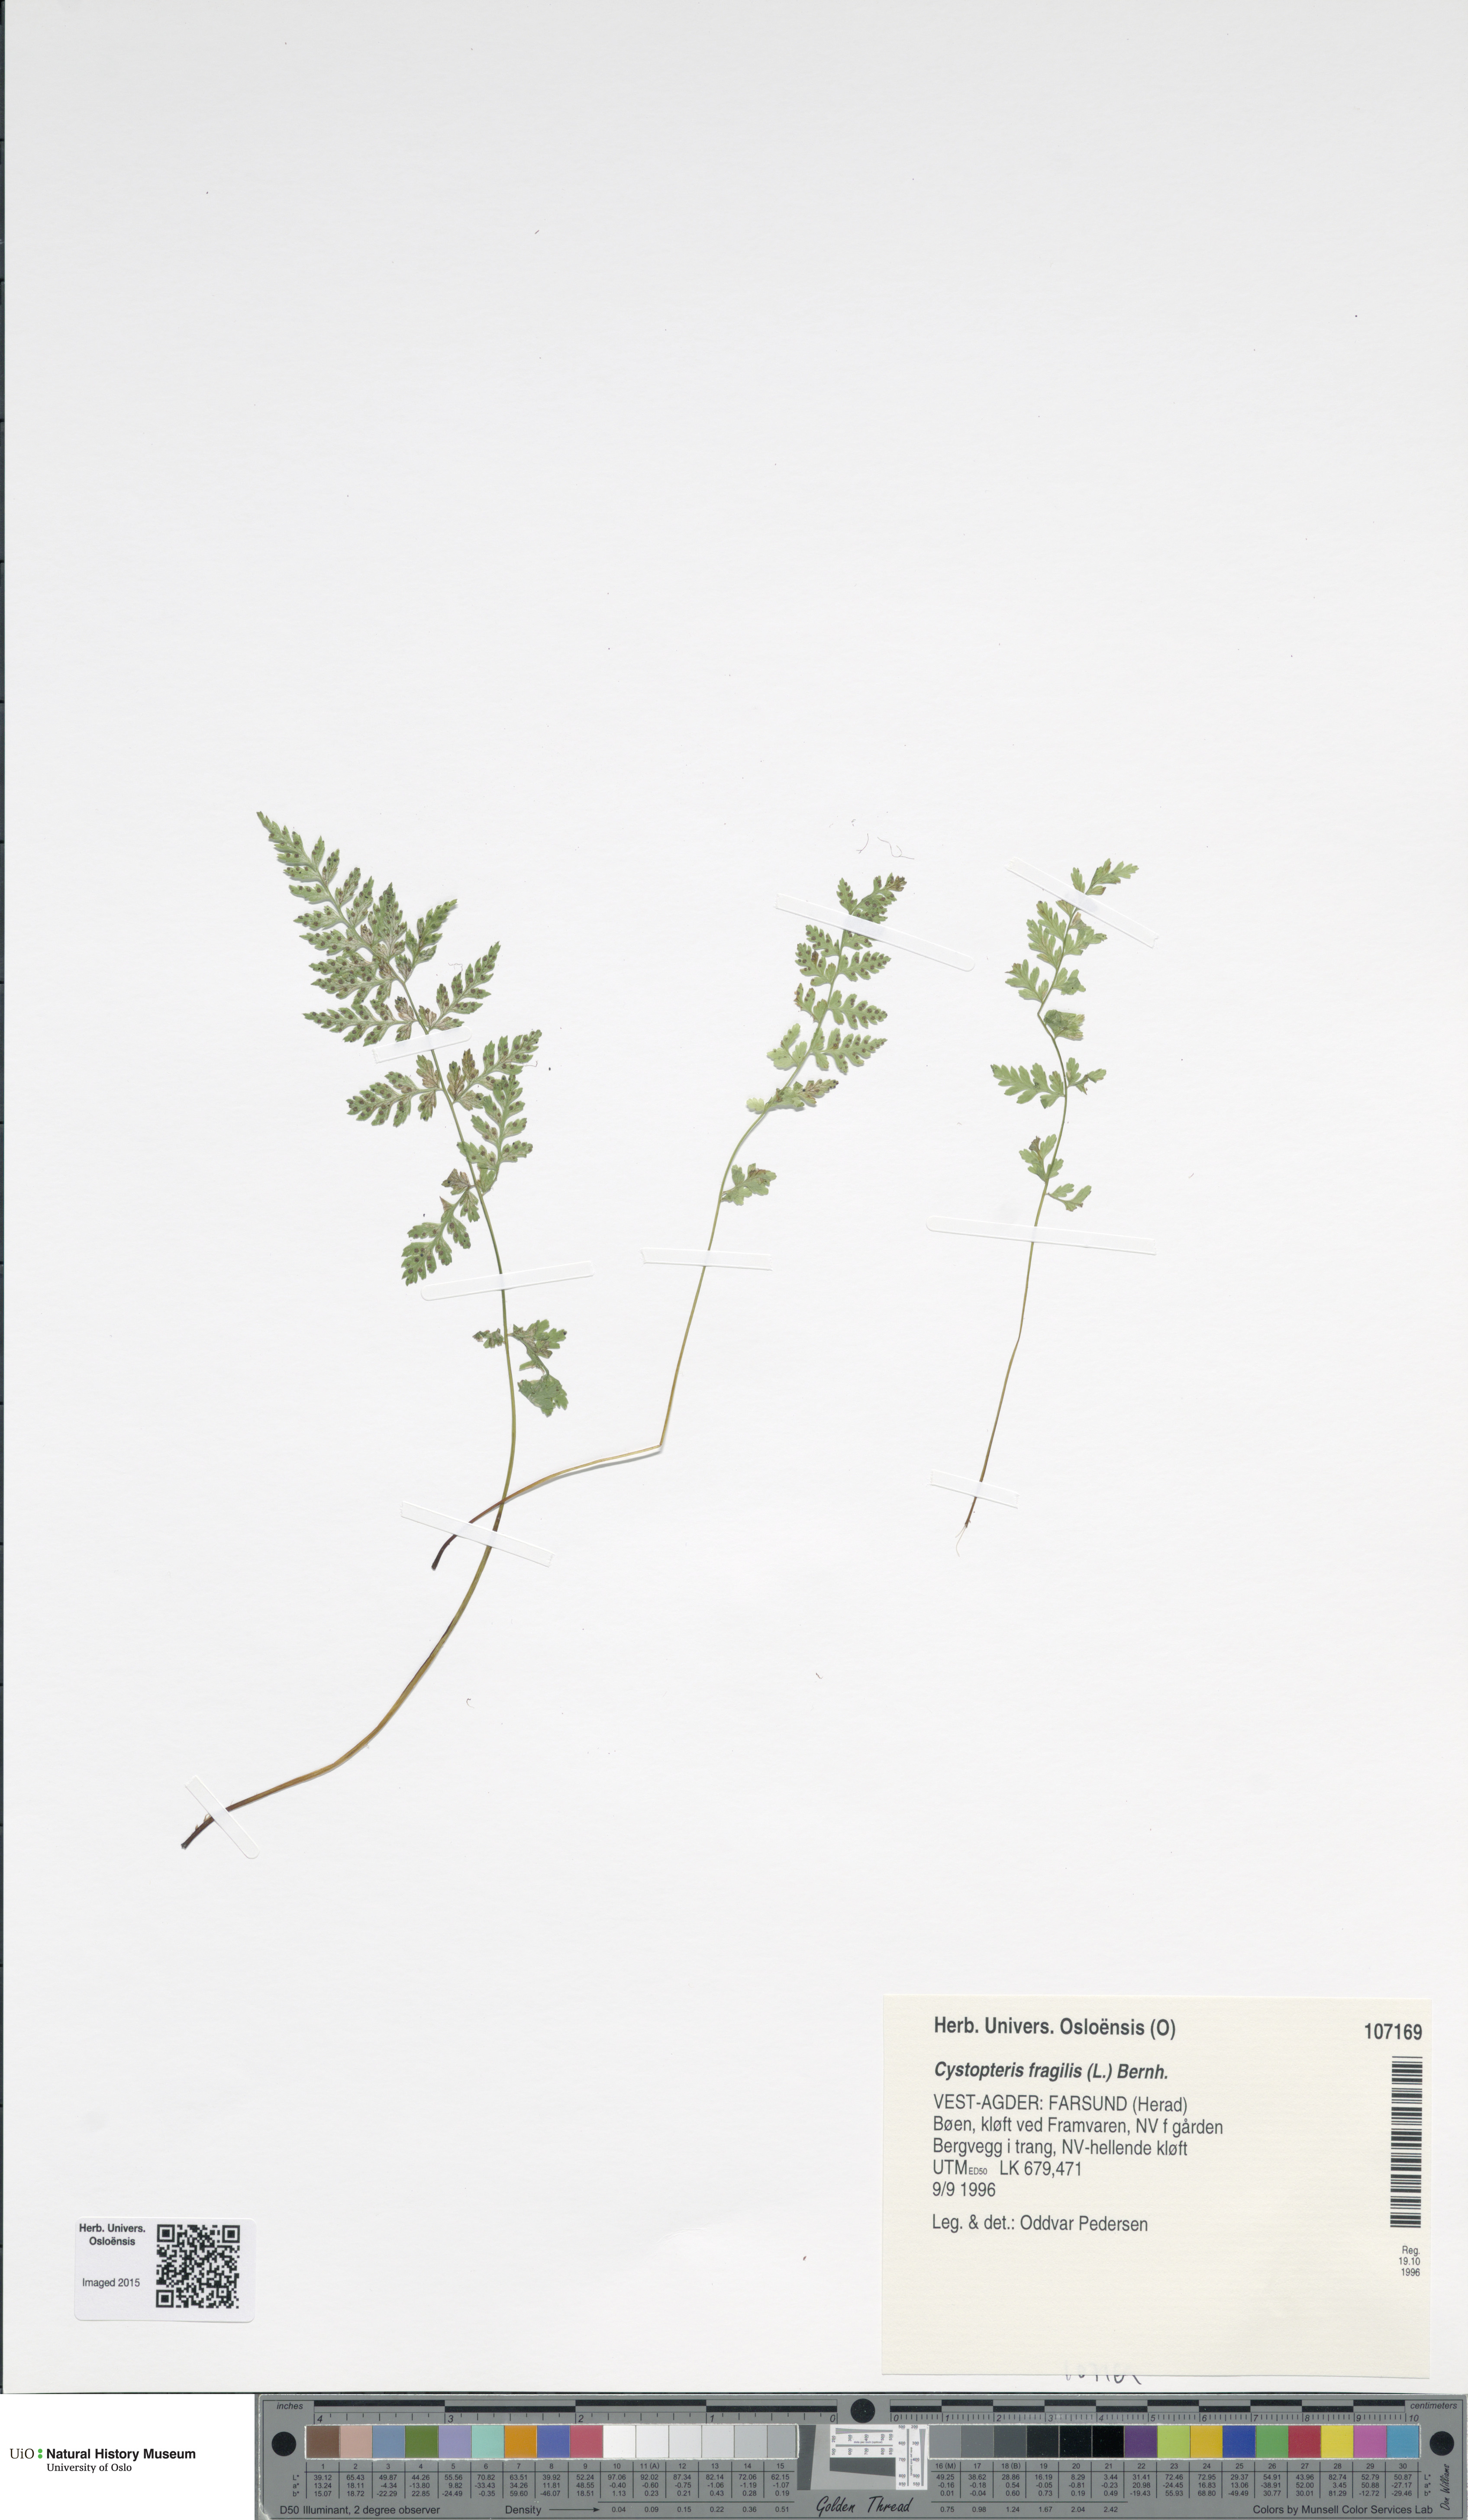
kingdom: Plantae
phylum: Tracheophyta
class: Polypodiopsida
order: Polypodiales
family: Cystopteridaceae
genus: Cystopteris
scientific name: Cystopteris fragilis
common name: Brittle bladder fern
